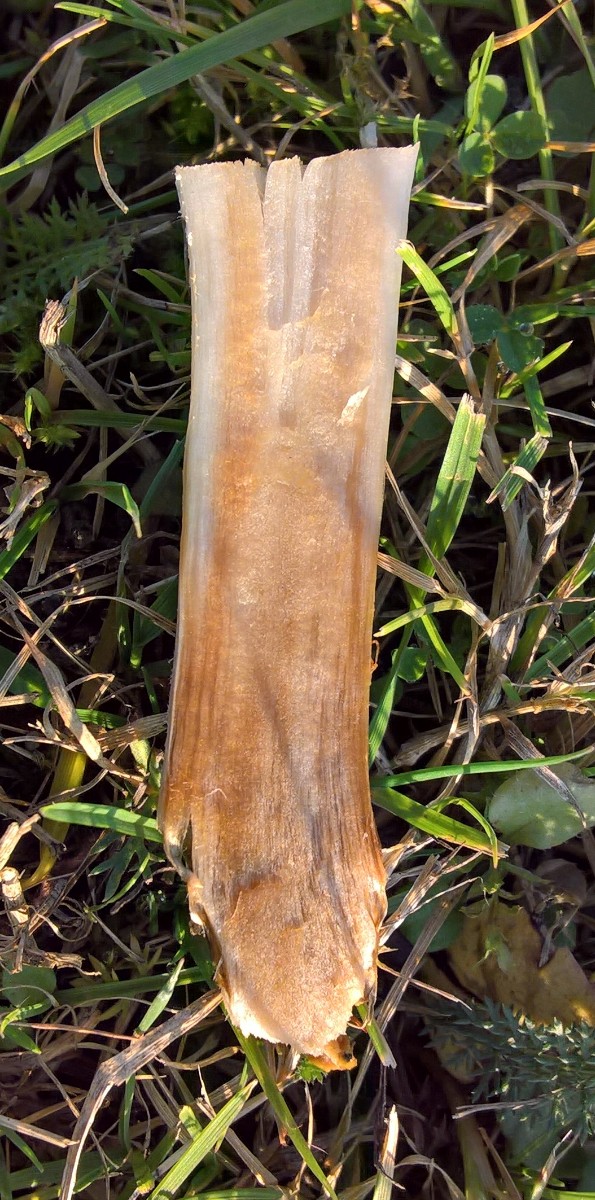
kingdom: Fungi
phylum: Basidiomycota
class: Agaricomycetes
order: Agaricales
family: Hymenogastraceae
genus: Hebeloma
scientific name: Hebeloma
